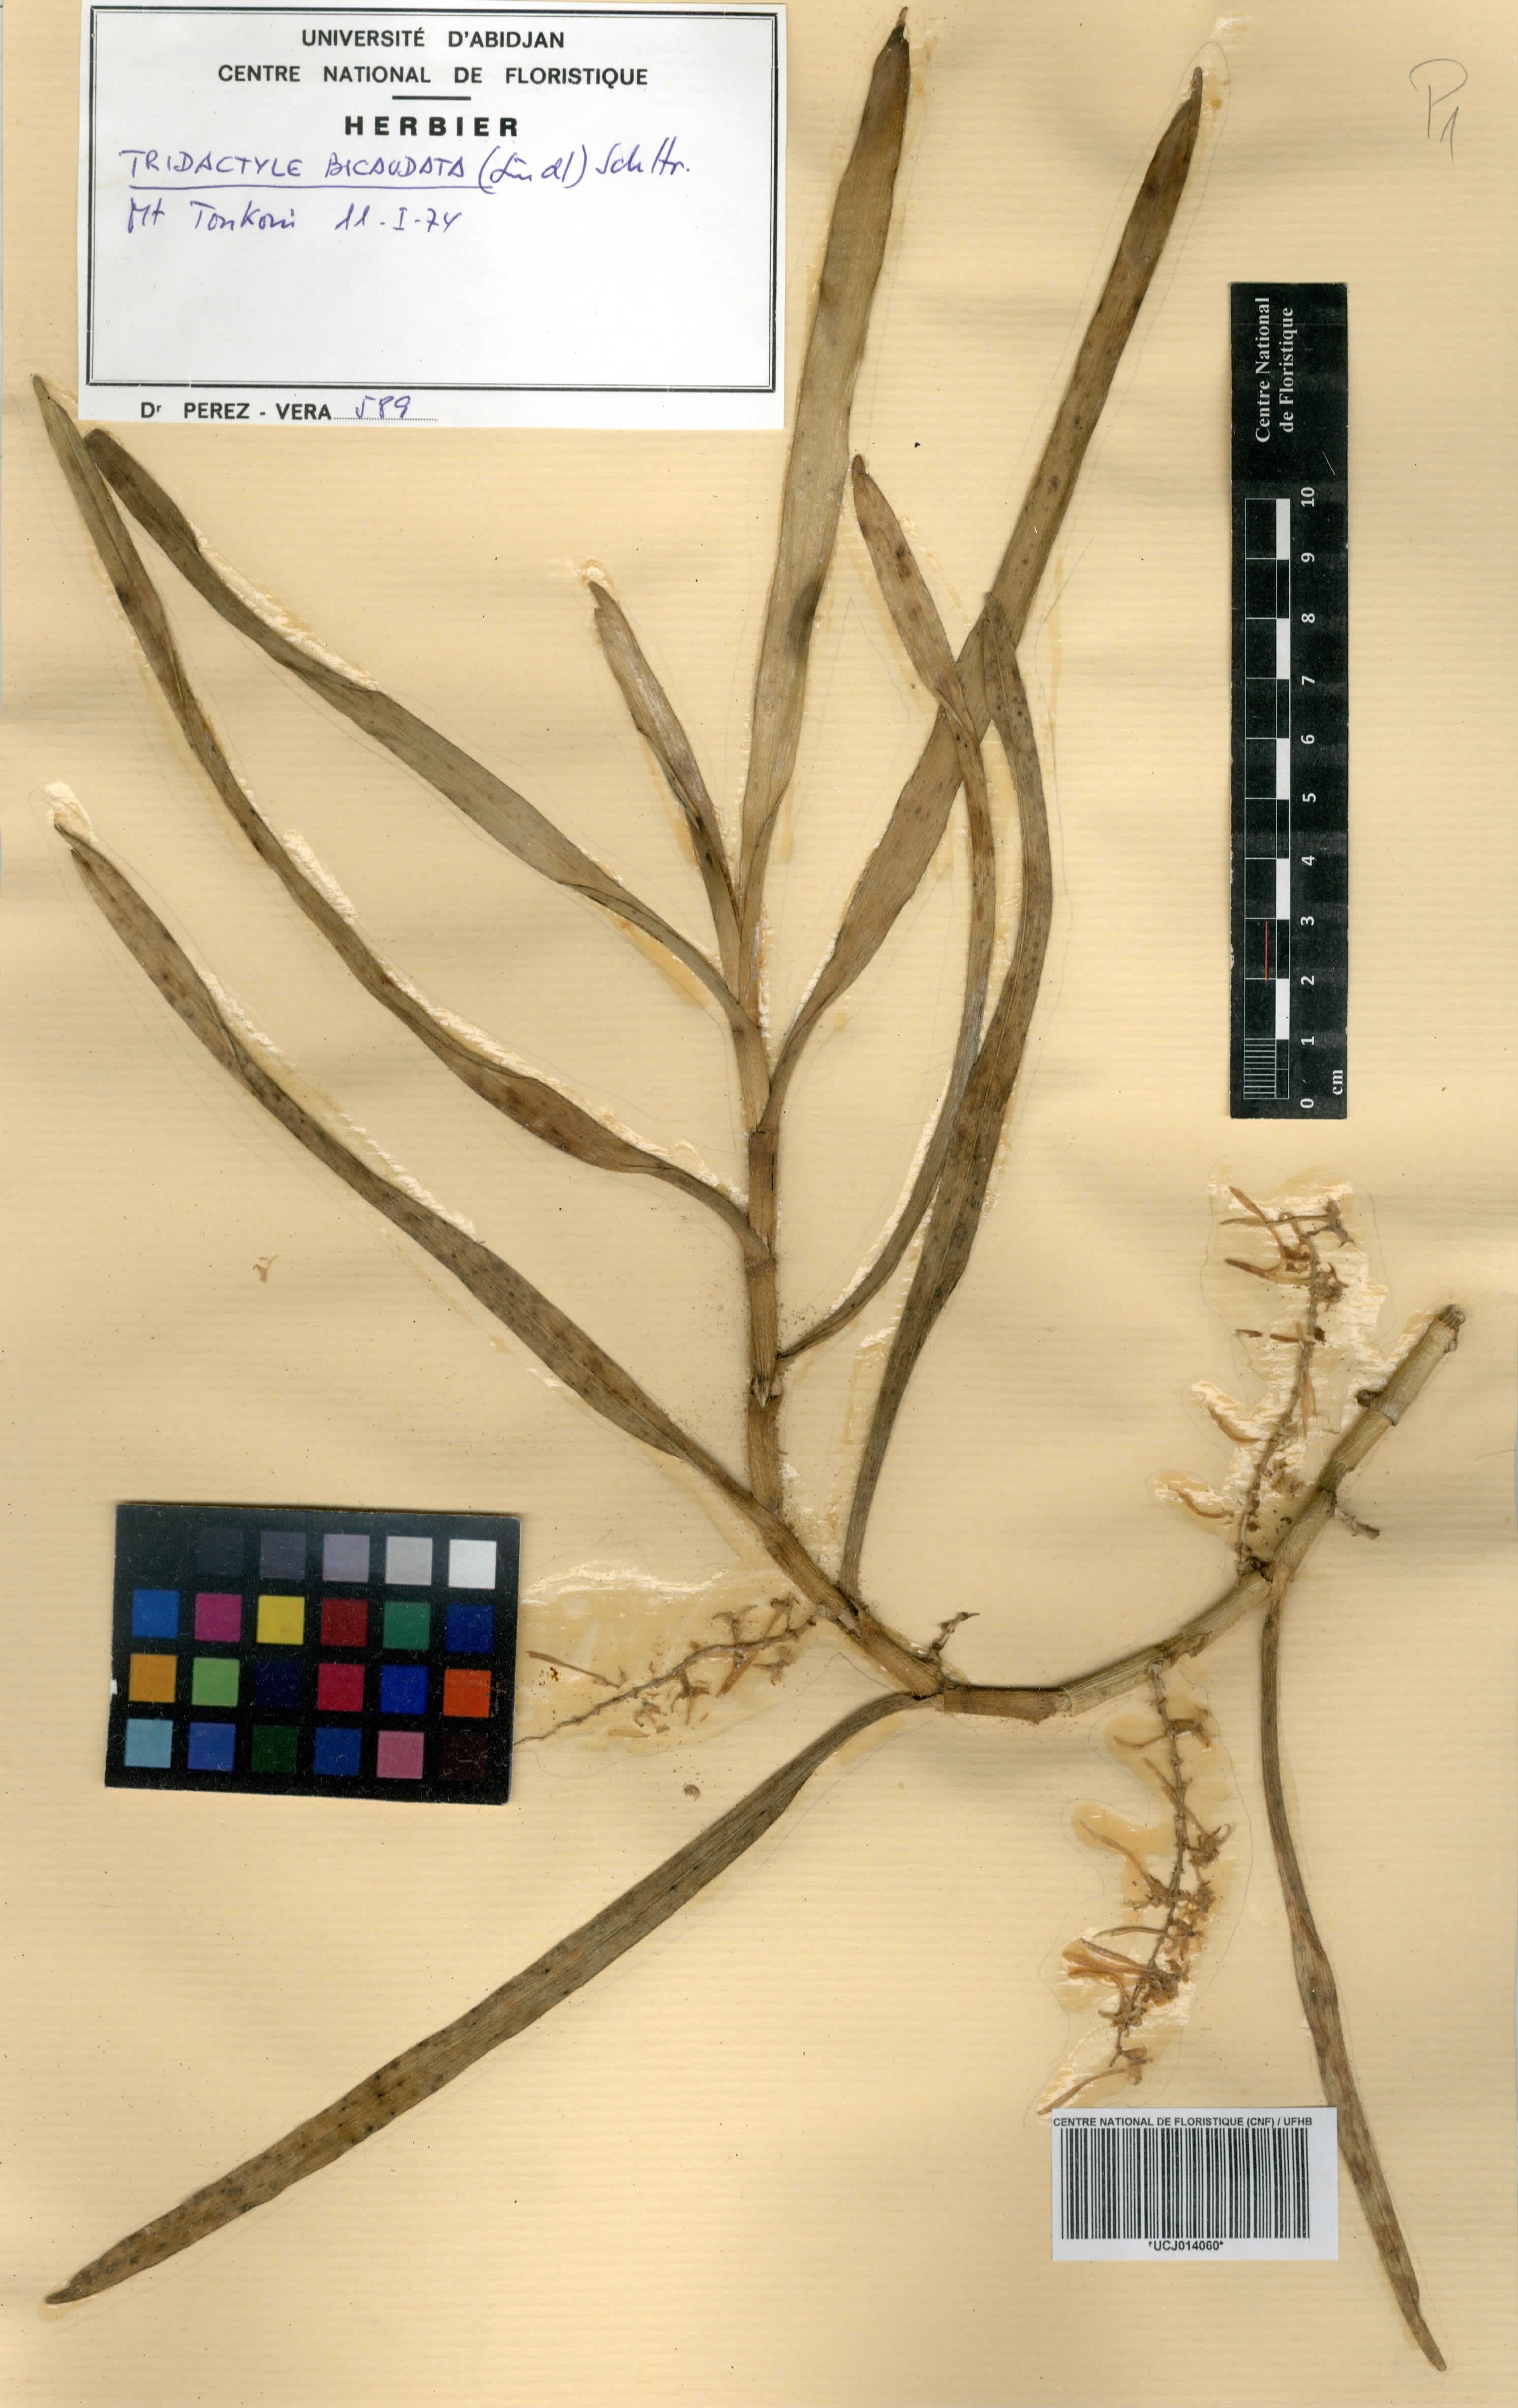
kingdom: Plantae
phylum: Tracheophyta
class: Liliopsida
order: Asparagales
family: Orchidaceae
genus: Tridactyle
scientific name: Tridactyle bicaudata
